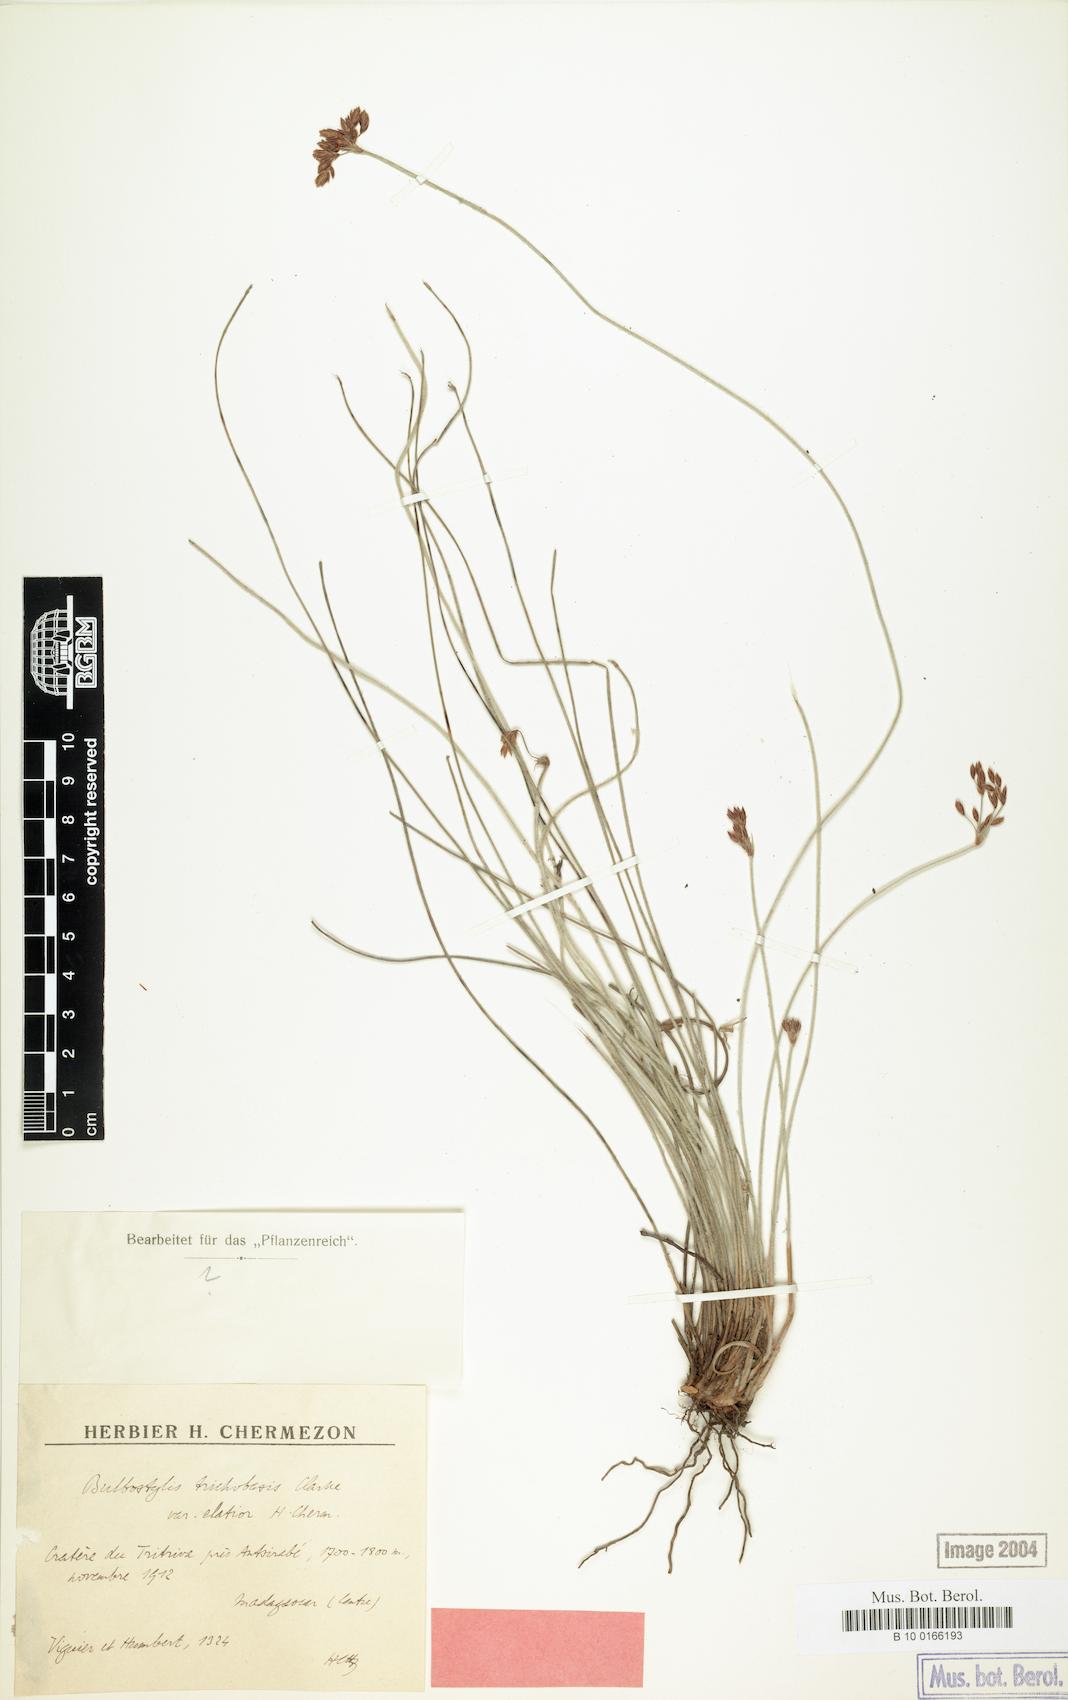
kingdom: Plantae
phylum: Tracheophyta
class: Liliopsida
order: Poales
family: Cyperaceae
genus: Bulbostylis
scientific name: Bulbostylis trichobasis
